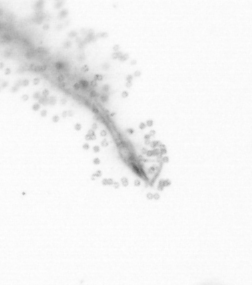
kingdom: Chromista
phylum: Ochrophyta
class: Bacillariophyceae
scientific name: Bacillariophyceae
